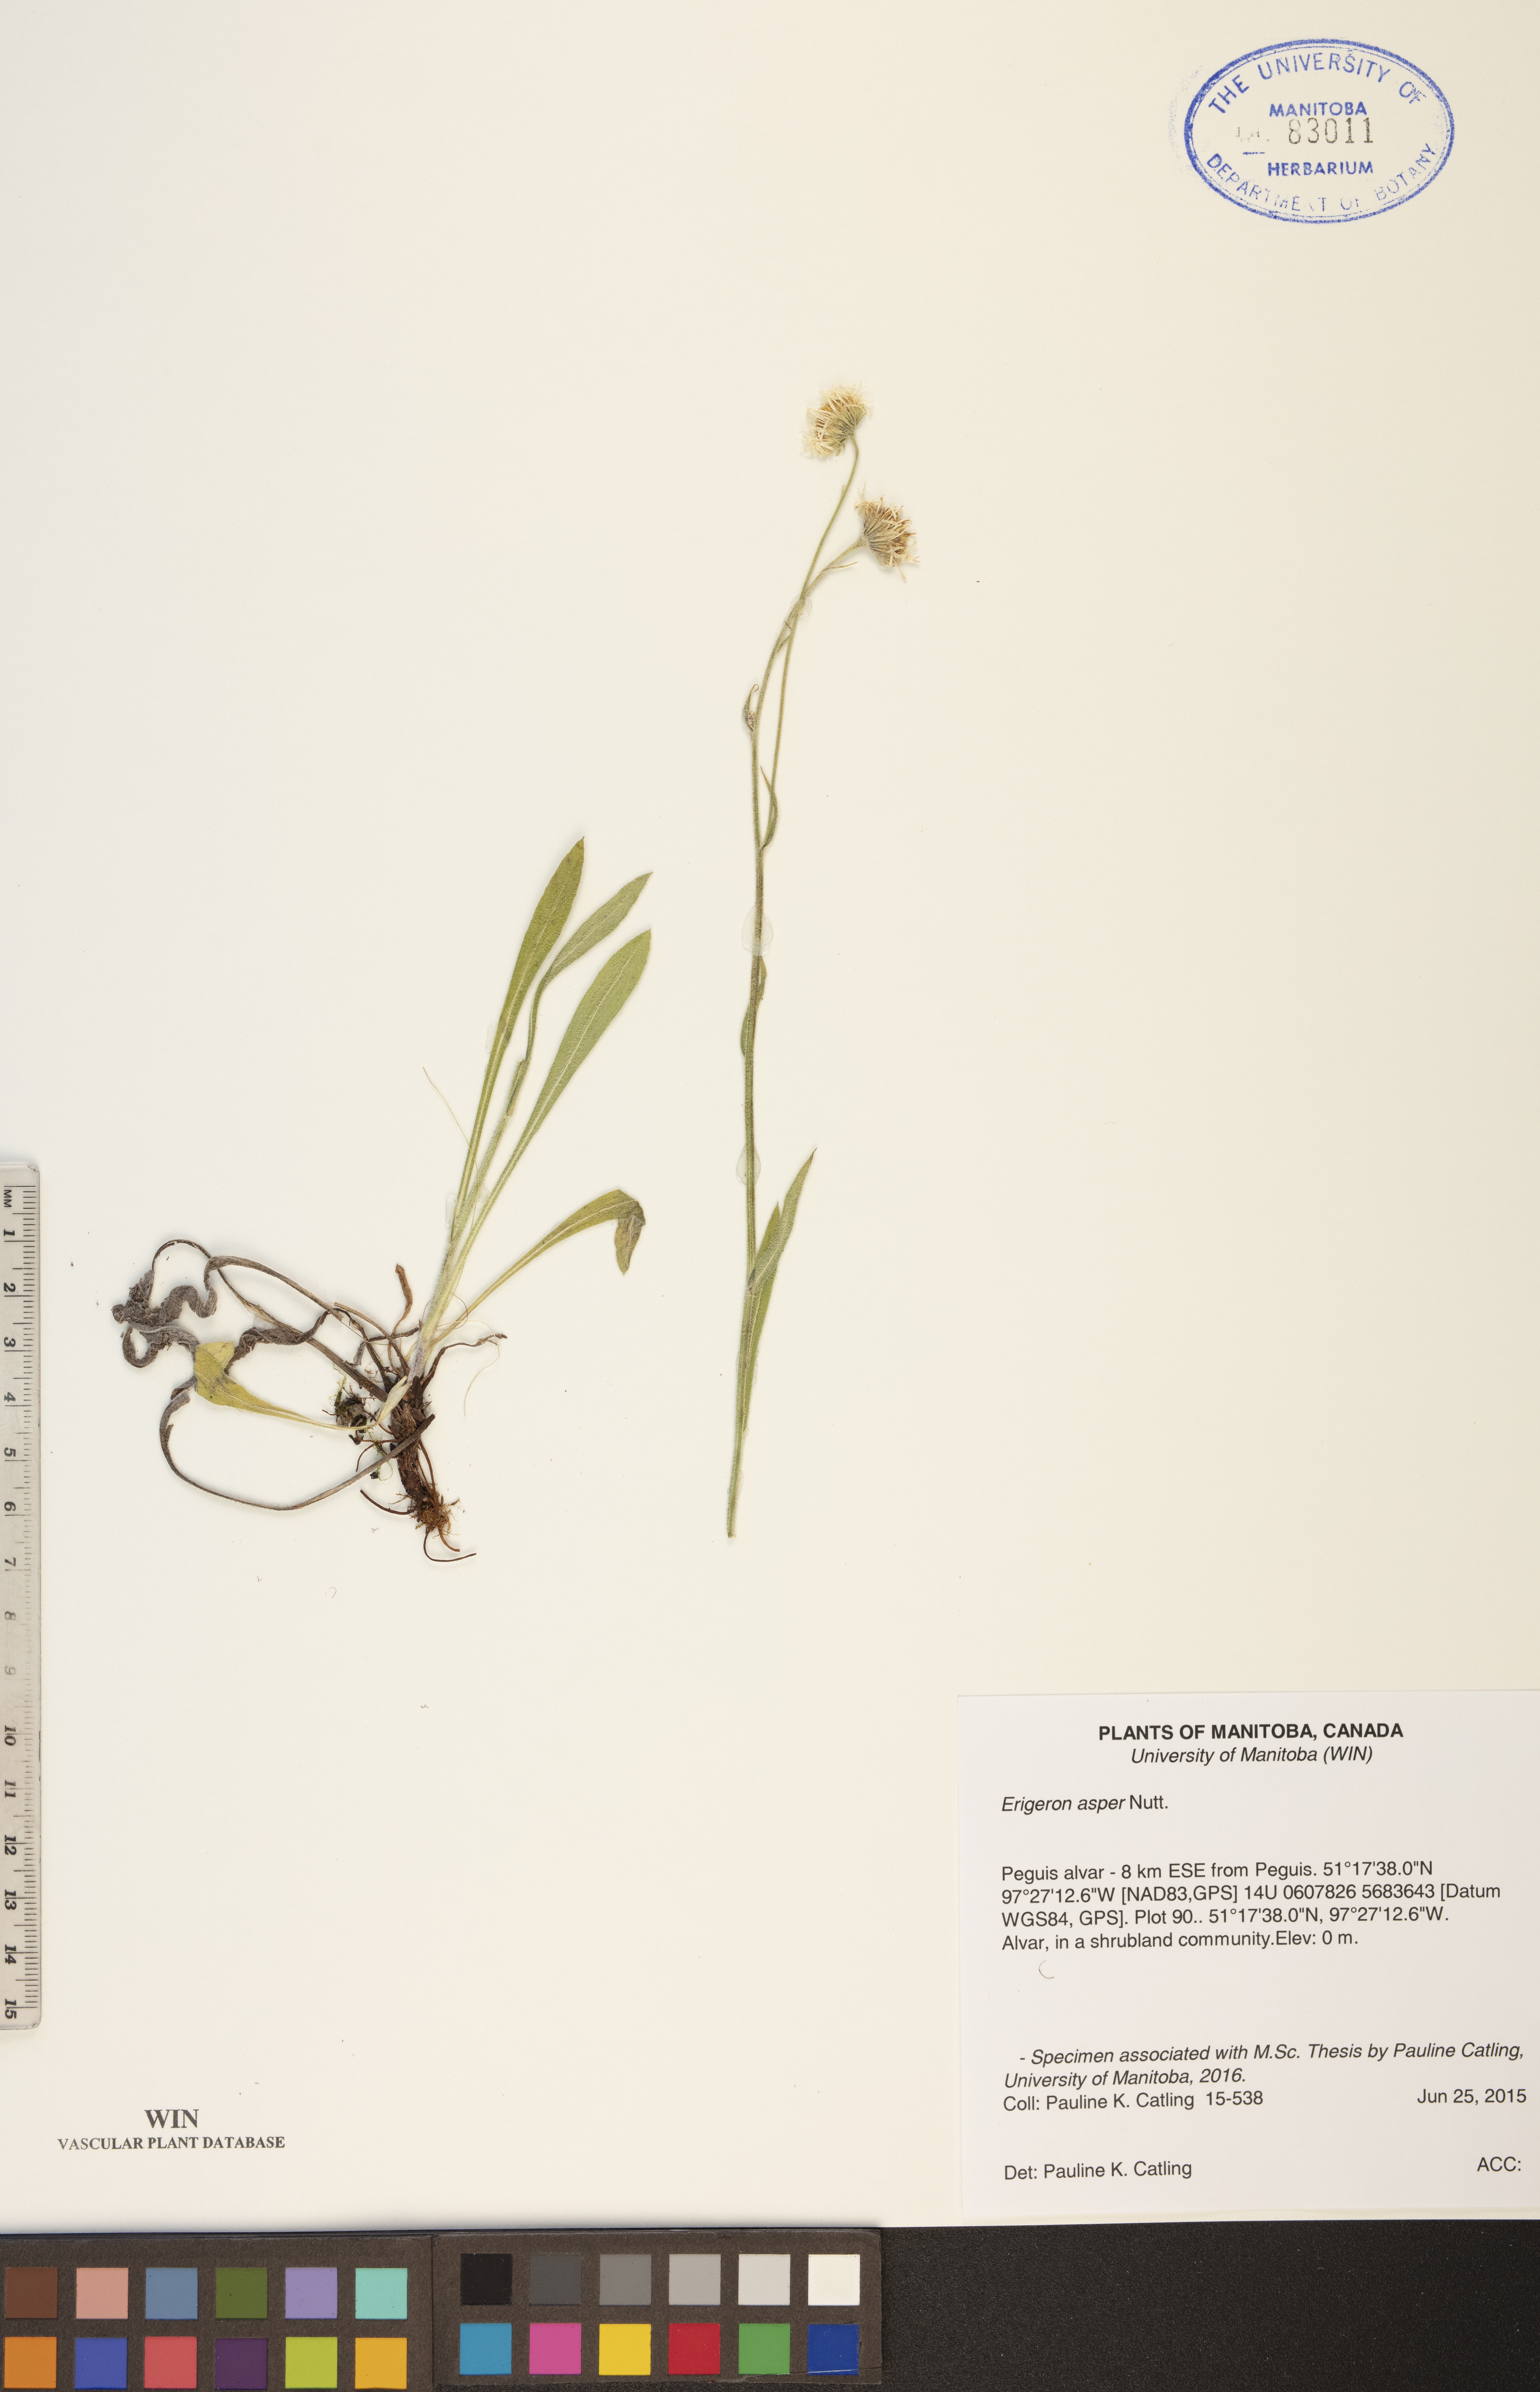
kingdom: Plantae
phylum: Tracheophyta
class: Magnoliopsida
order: Asterales
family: Asteraceae
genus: Erigeron
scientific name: Erigeron glabellus
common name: Smooth fleabane
